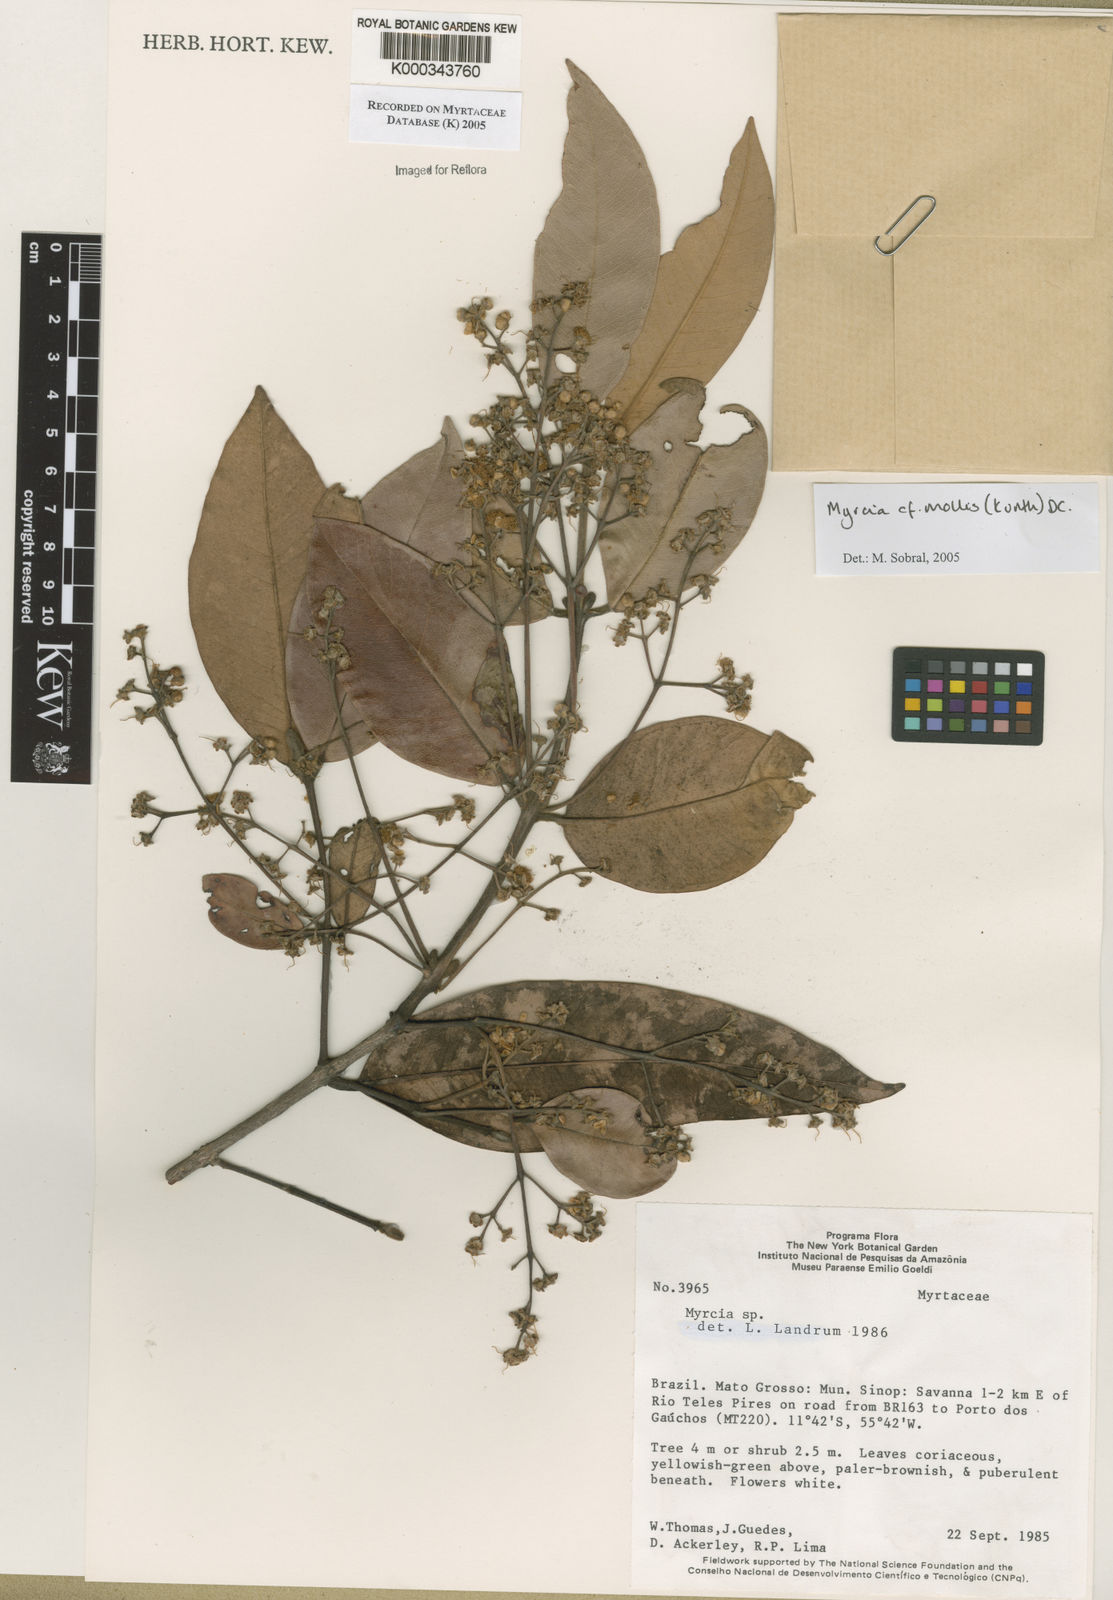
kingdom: Plantae
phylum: Tracheophyta
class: Magnoliopsida
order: Myrtales
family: Myrtaceae
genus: Myrcia
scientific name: Myrcia mollis
